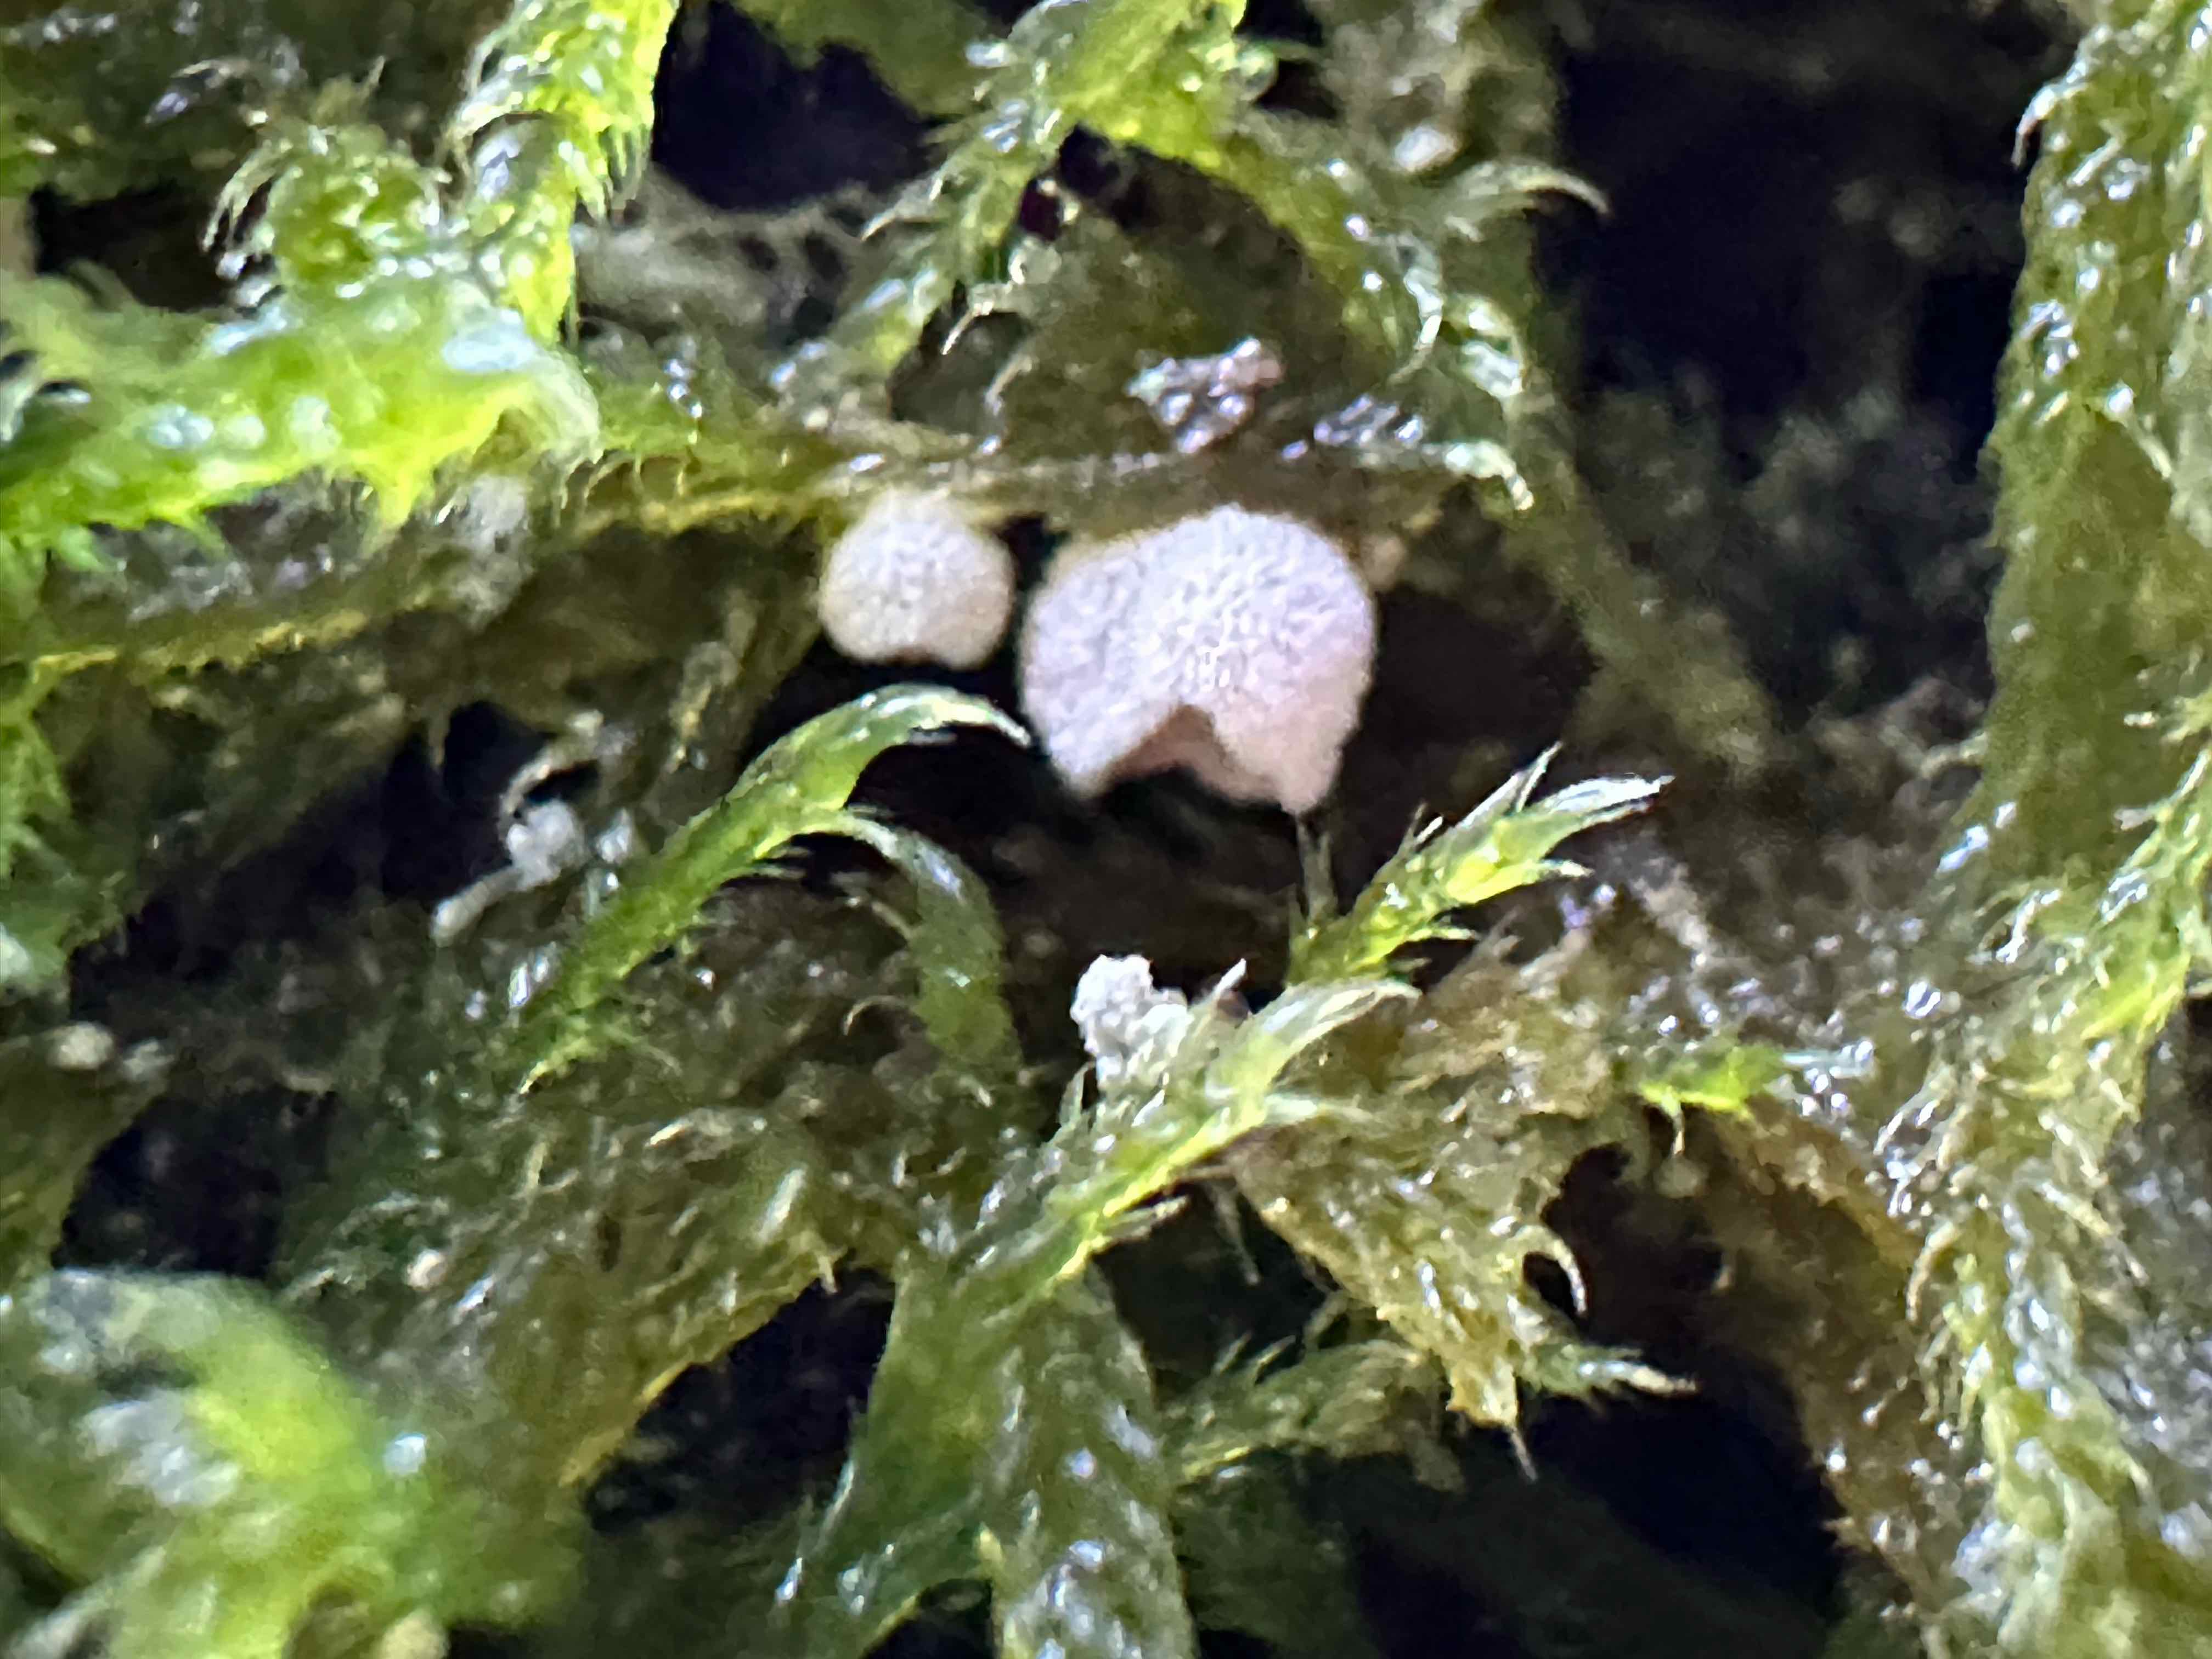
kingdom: Fungi
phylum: Basidiomycota
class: Agaricomycetes
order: Agaricales
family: Chromocyphellaceae
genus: Chromocyphella
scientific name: Chromocyphella muscicola
